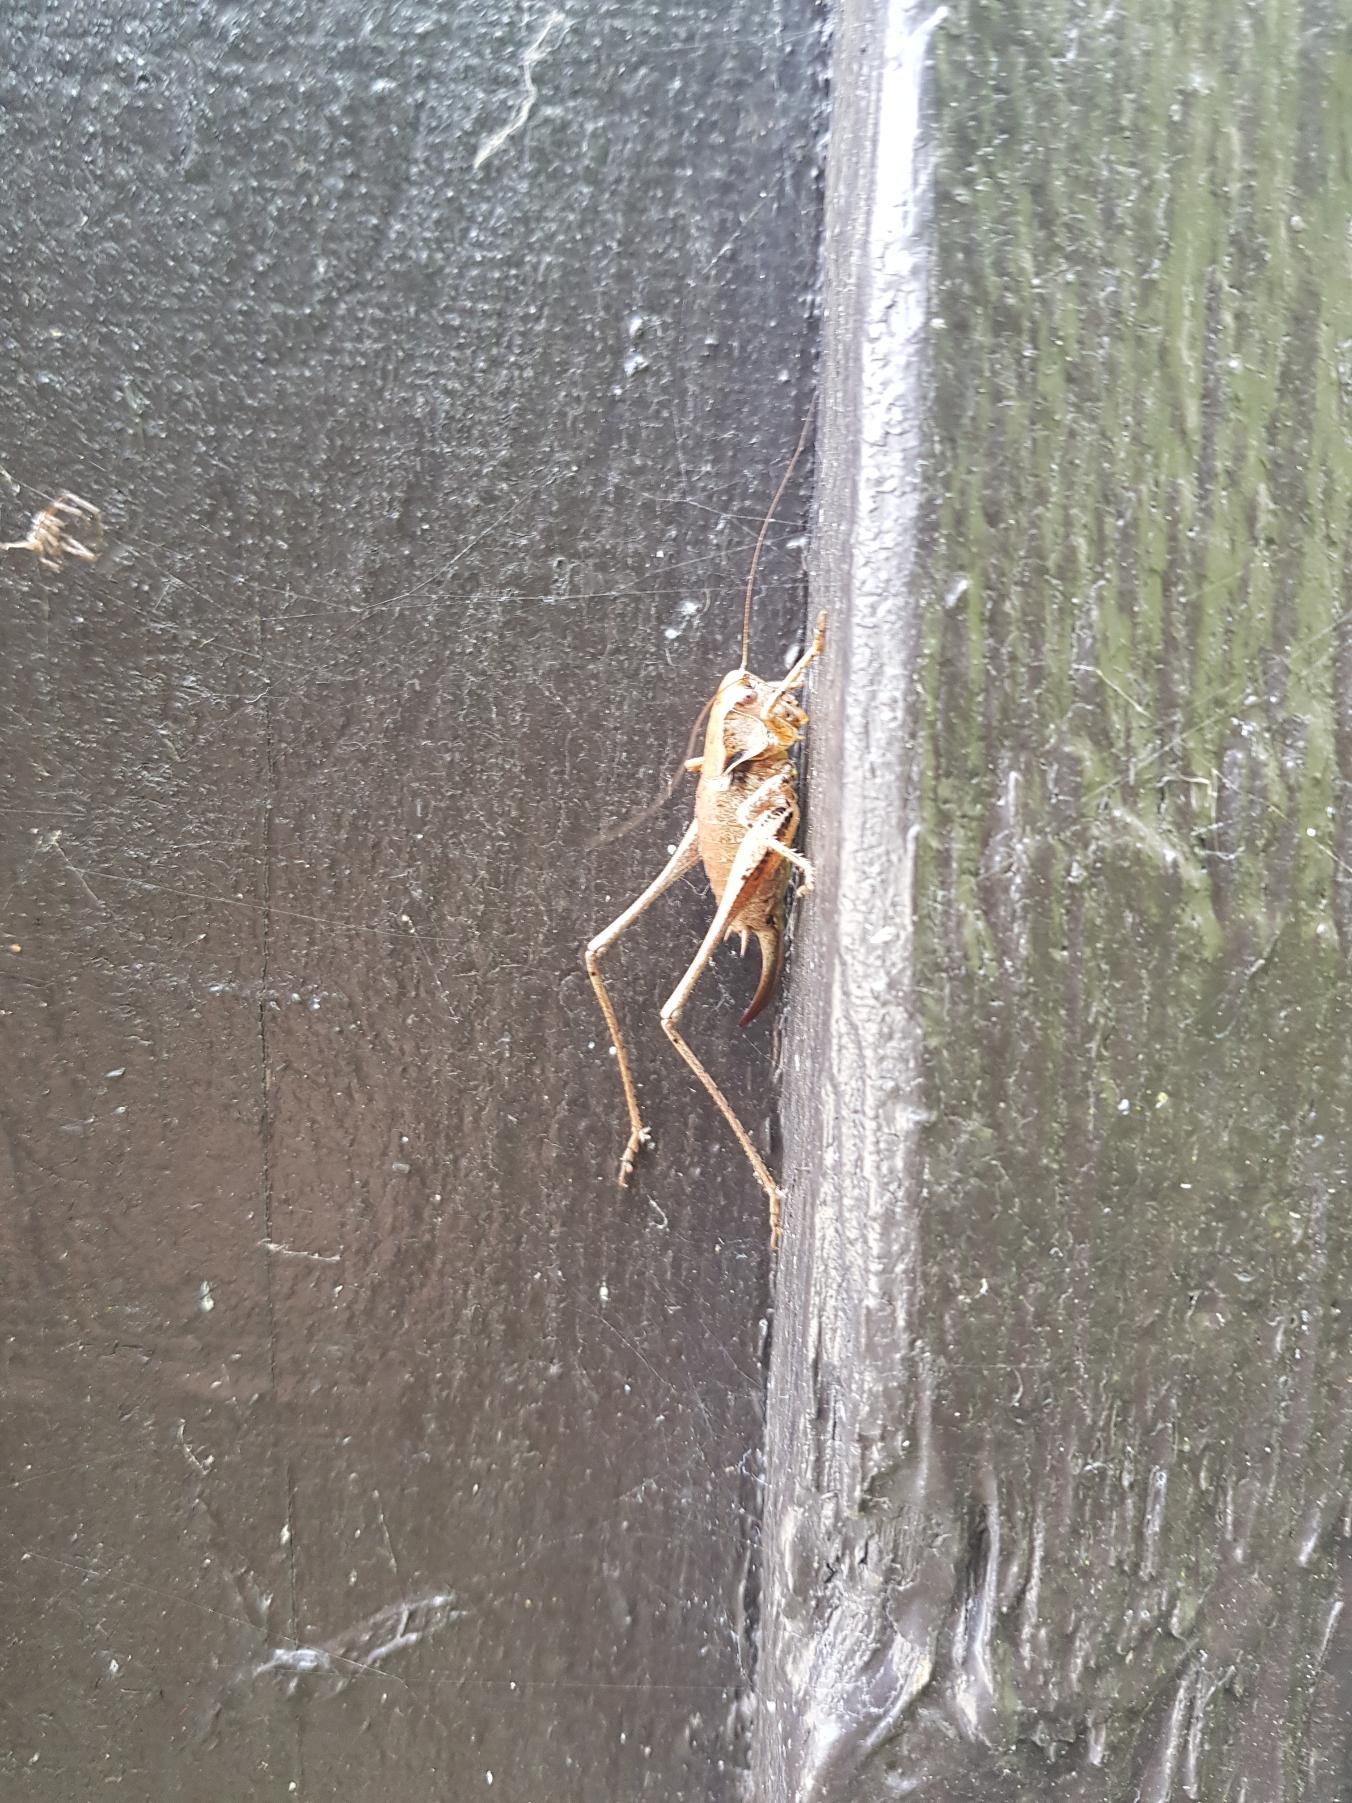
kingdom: Animalia
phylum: Arthropoda
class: Insecta
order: Orthoptera
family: Tettigoniidae
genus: Pholidoptera
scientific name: Pholidoptera griseoaptera
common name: Buskgræshoppe
